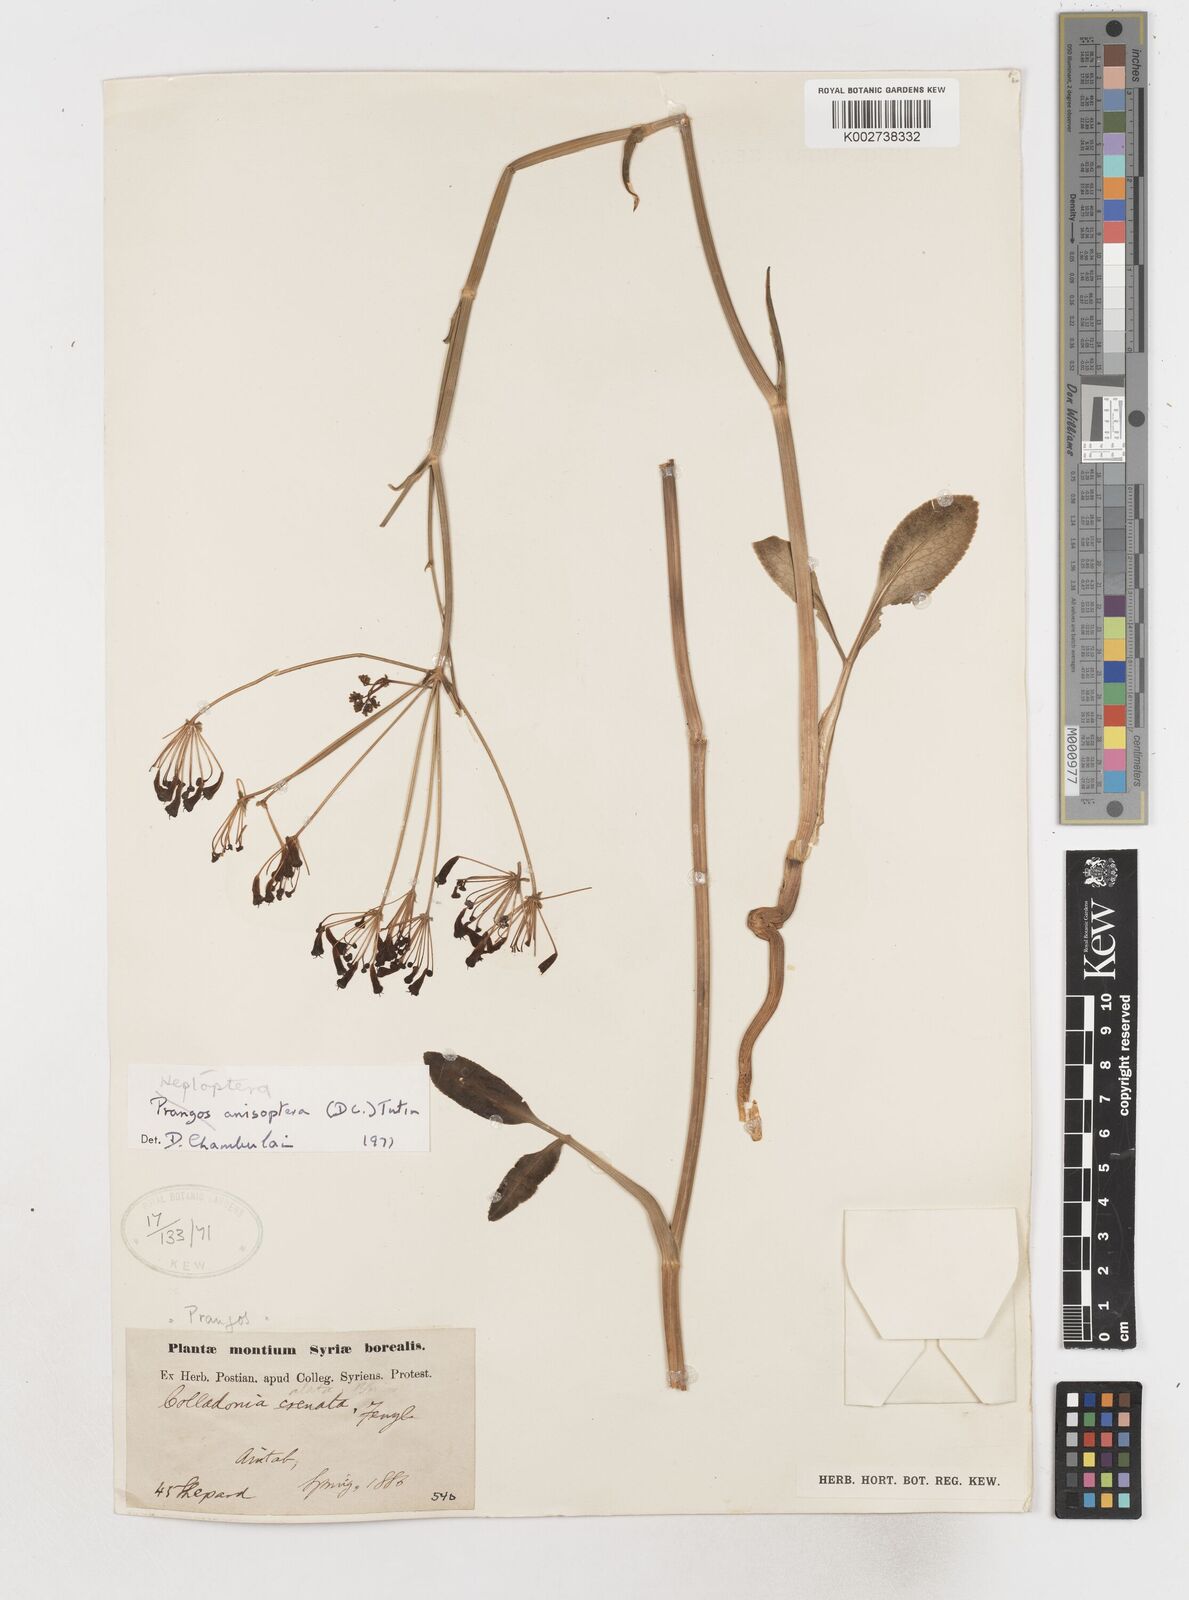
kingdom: Plantae
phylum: Tracheophyta
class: Magnoliopsida
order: Apiales
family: Apiaceae
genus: Heptaptera
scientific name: Heptaptera
